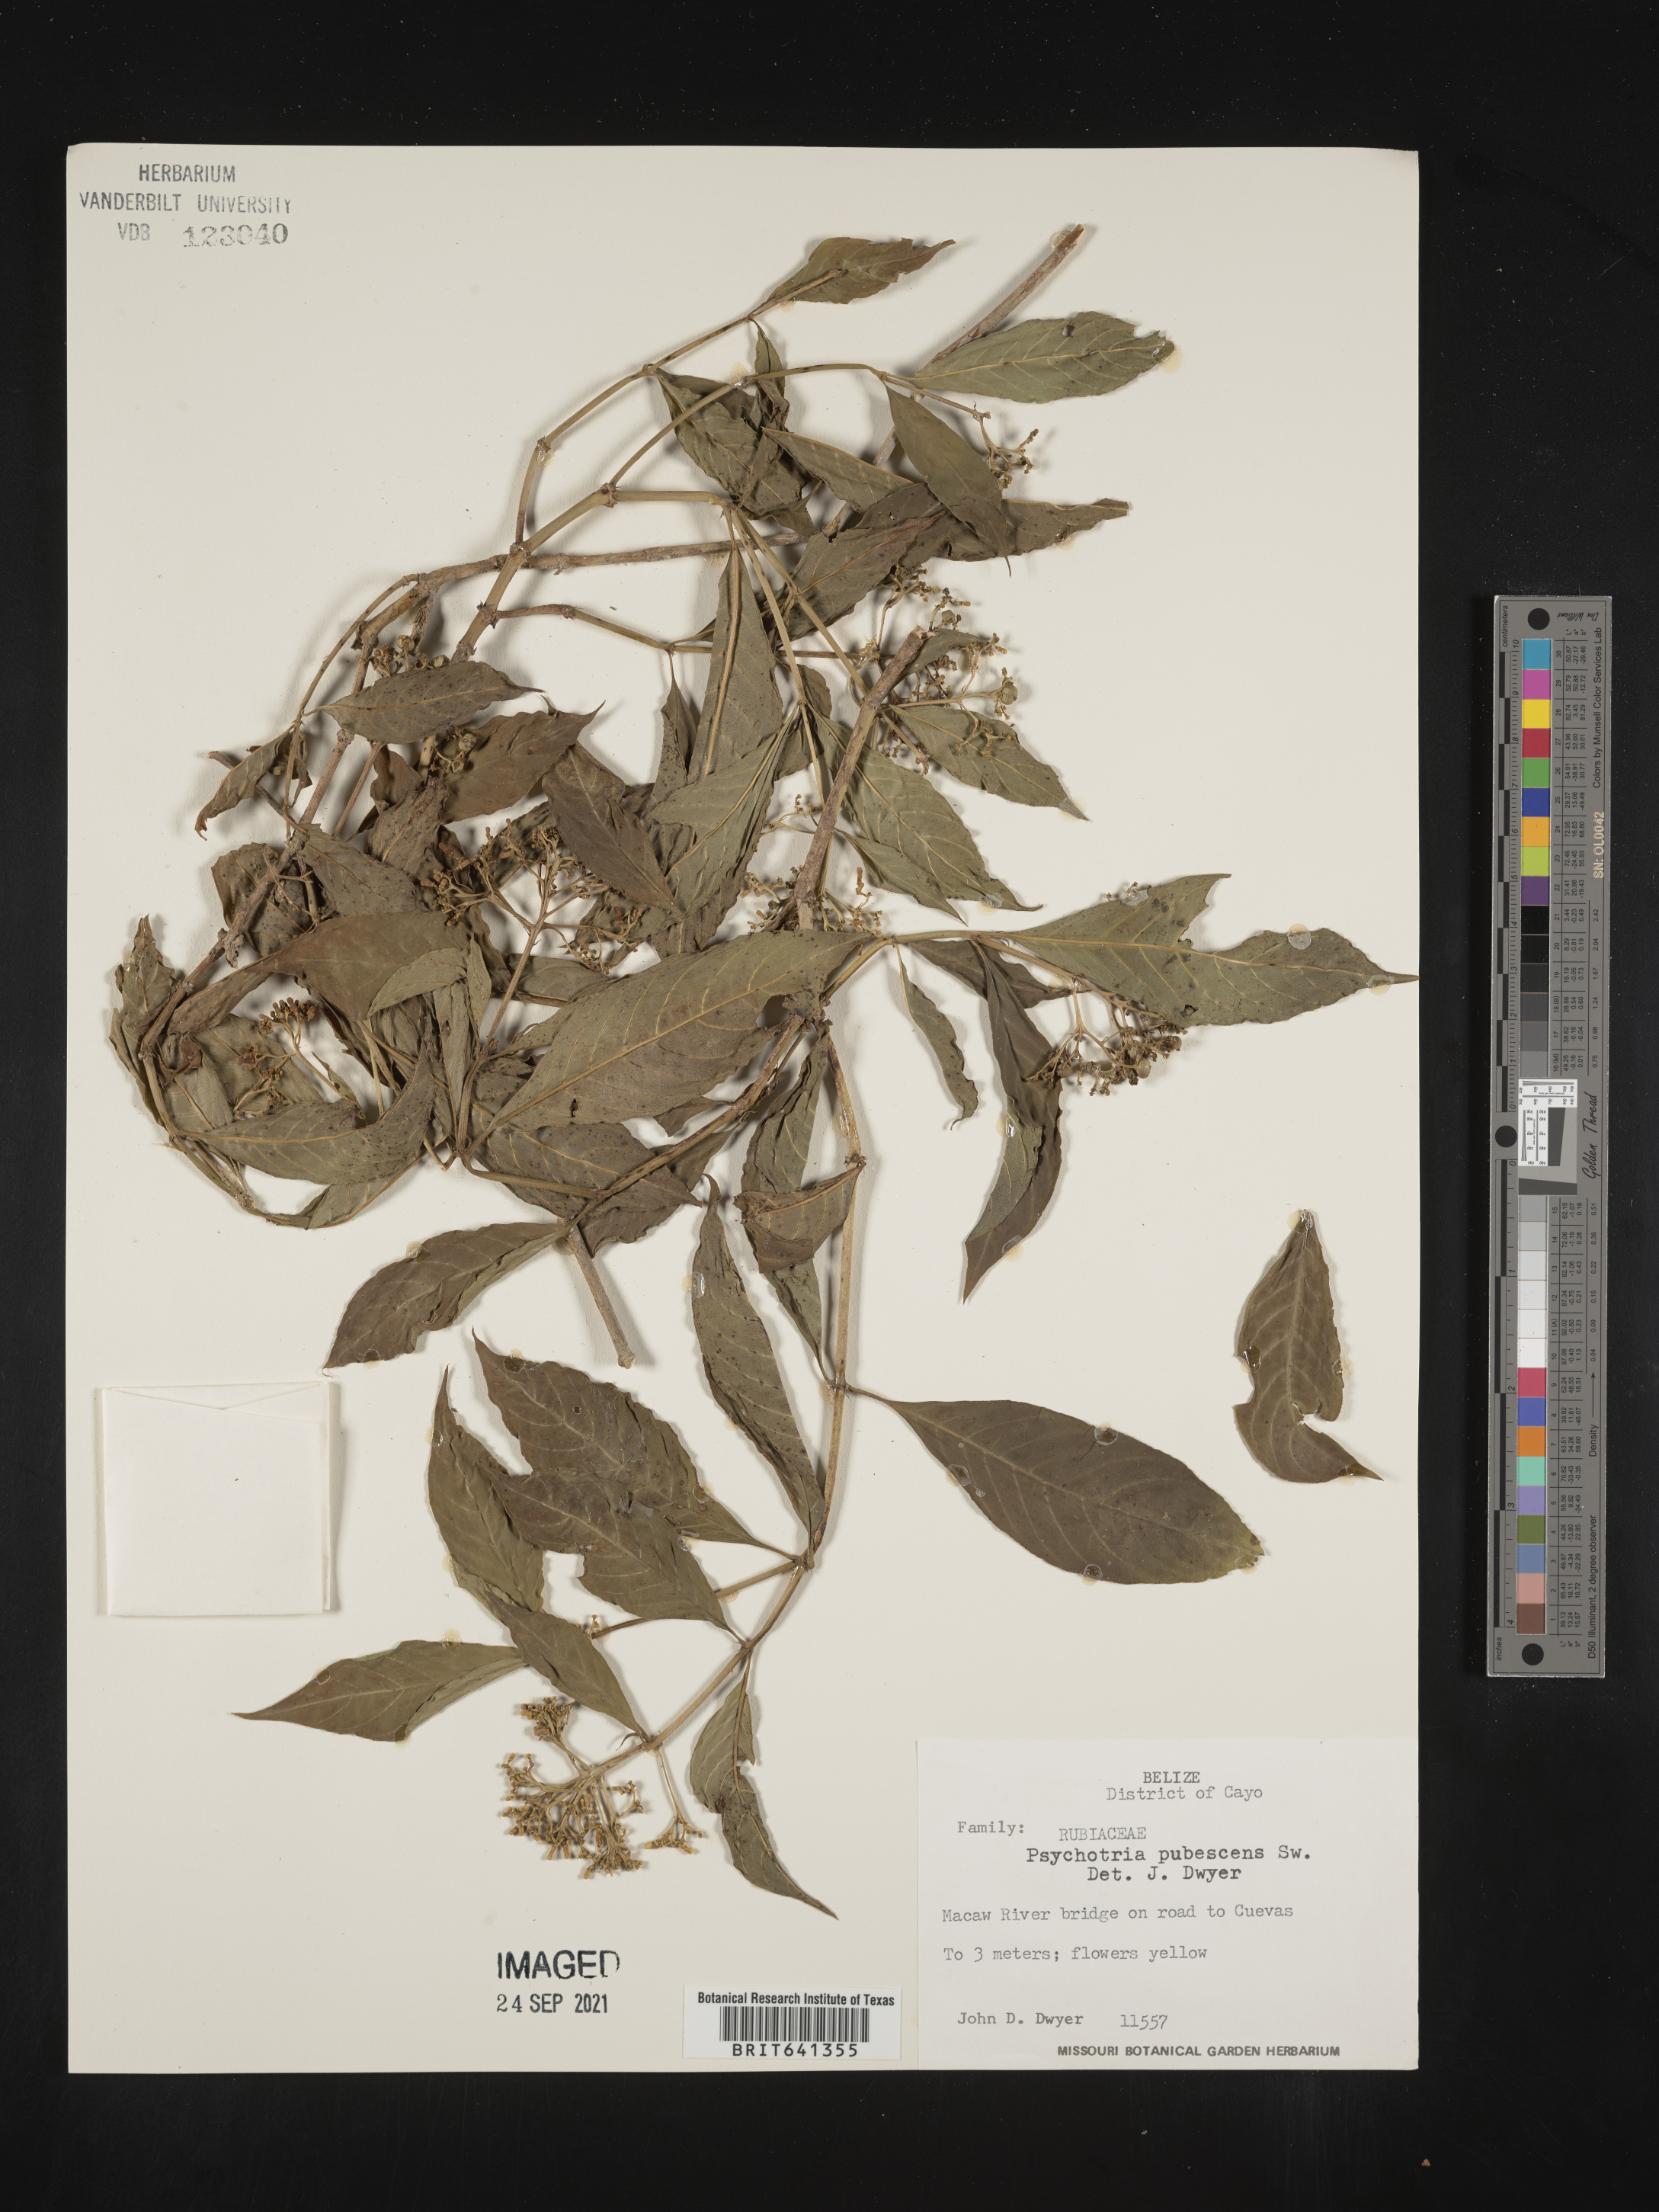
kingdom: Plantae
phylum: Tracheophyta
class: Magnoliopsida
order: Gentianales
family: Rubiaceae
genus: Psychotria
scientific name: Psychotria
